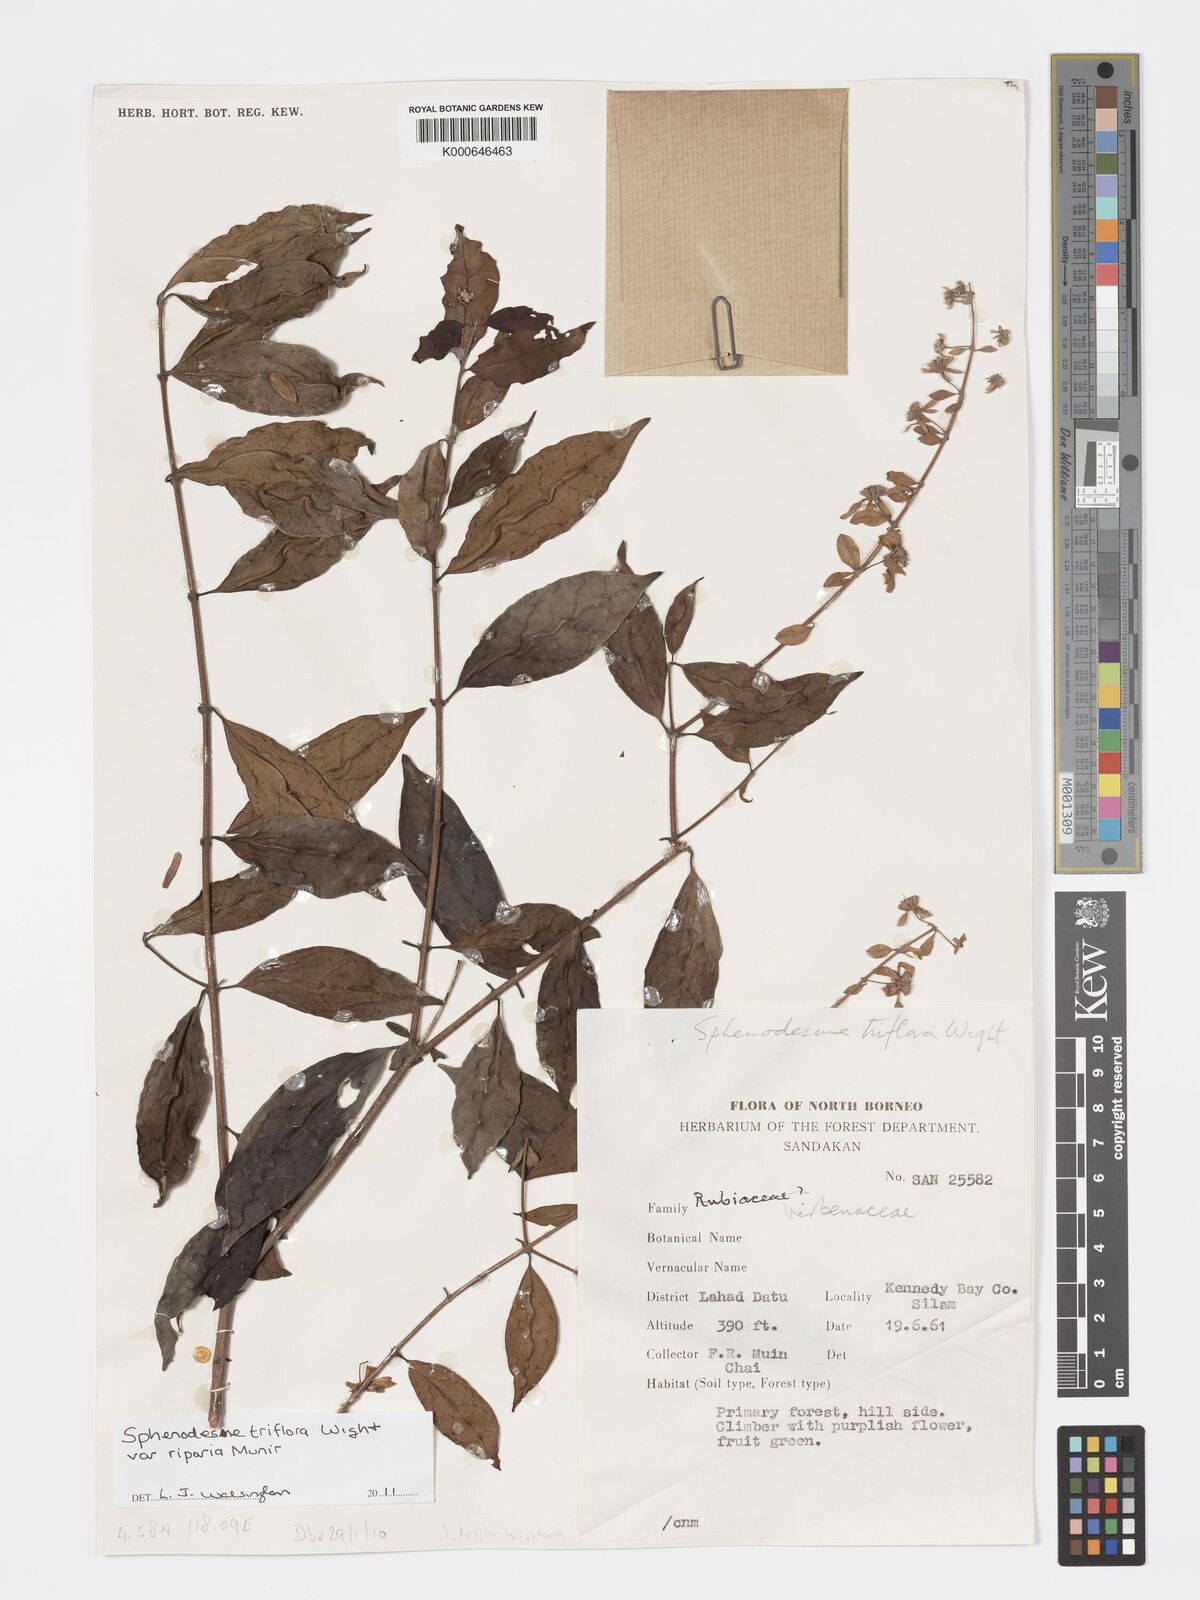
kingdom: Plantae
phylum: Tracheophyta
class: Magnoliopsida
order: Lamiales
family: Lamiaceae
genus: Sphenodesme
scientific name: Sphenodesme
